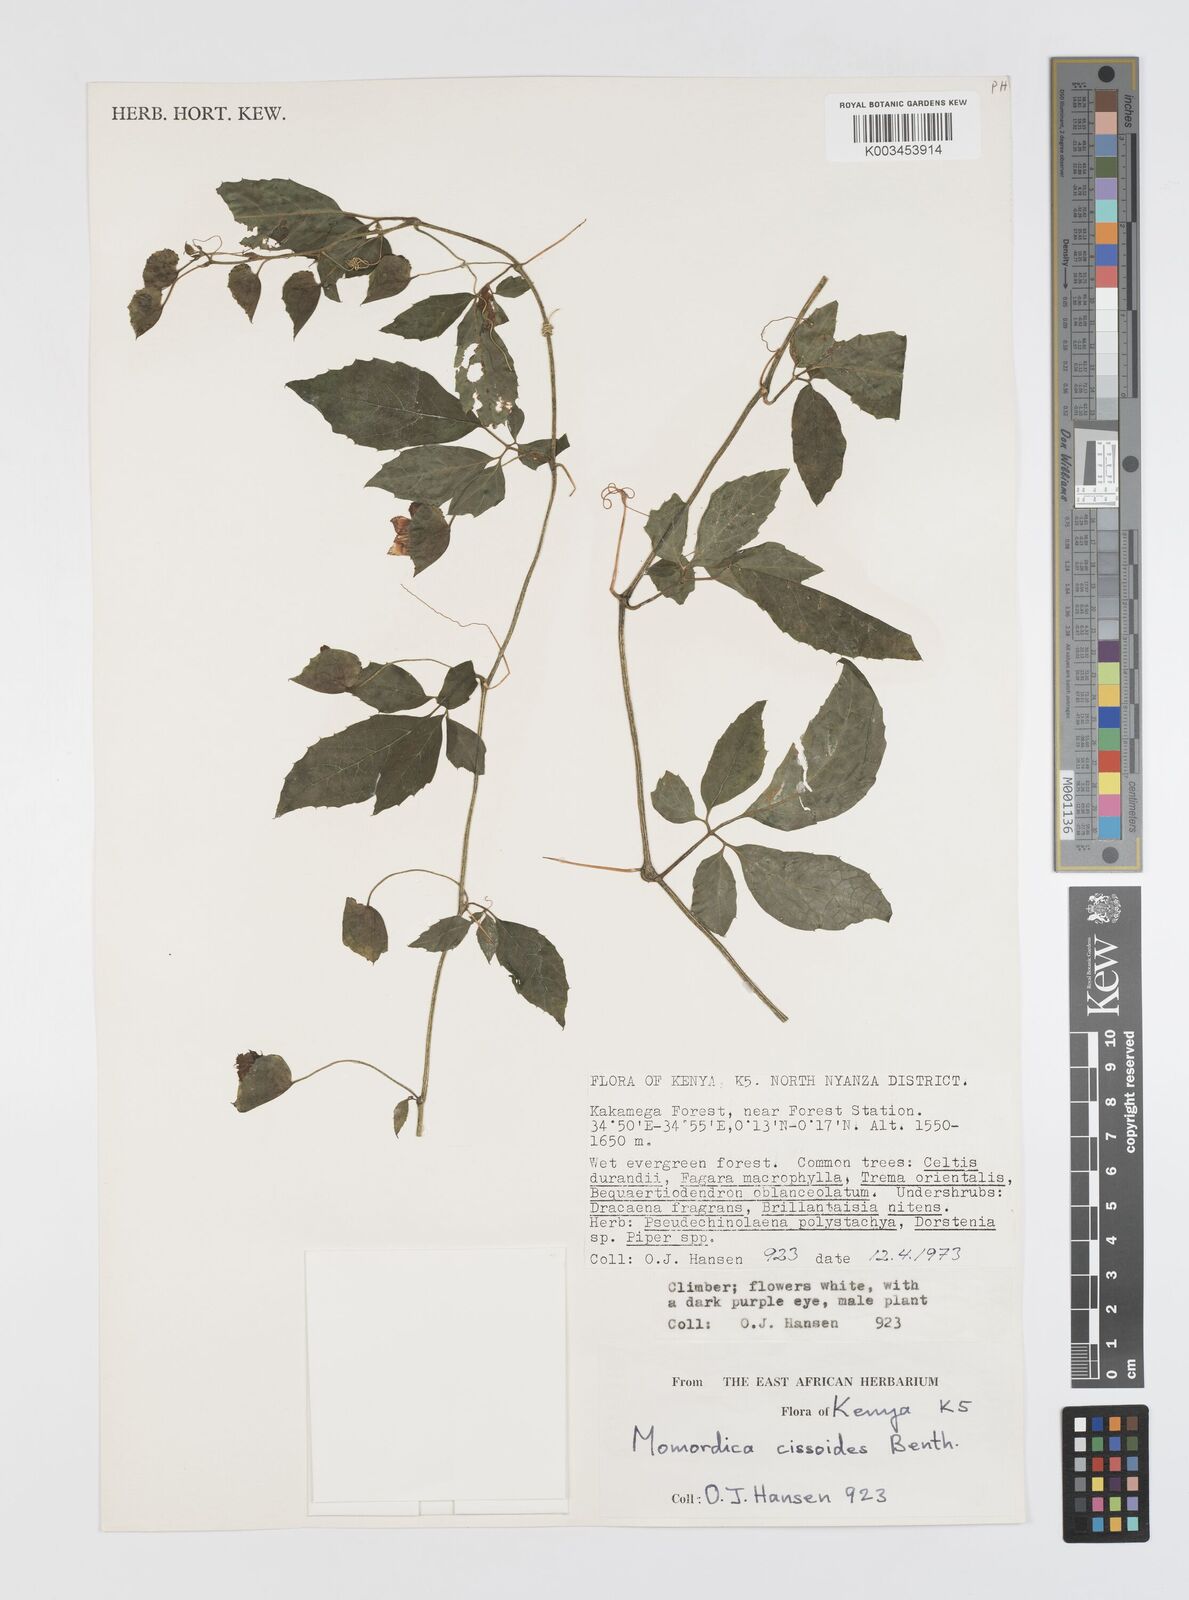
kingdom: Plantae
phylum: Tracheophyta
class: Magnoliopsida
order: Cucurbitales
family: Cucurbitaceae
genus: Momordica
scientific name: Momordica cissoides
